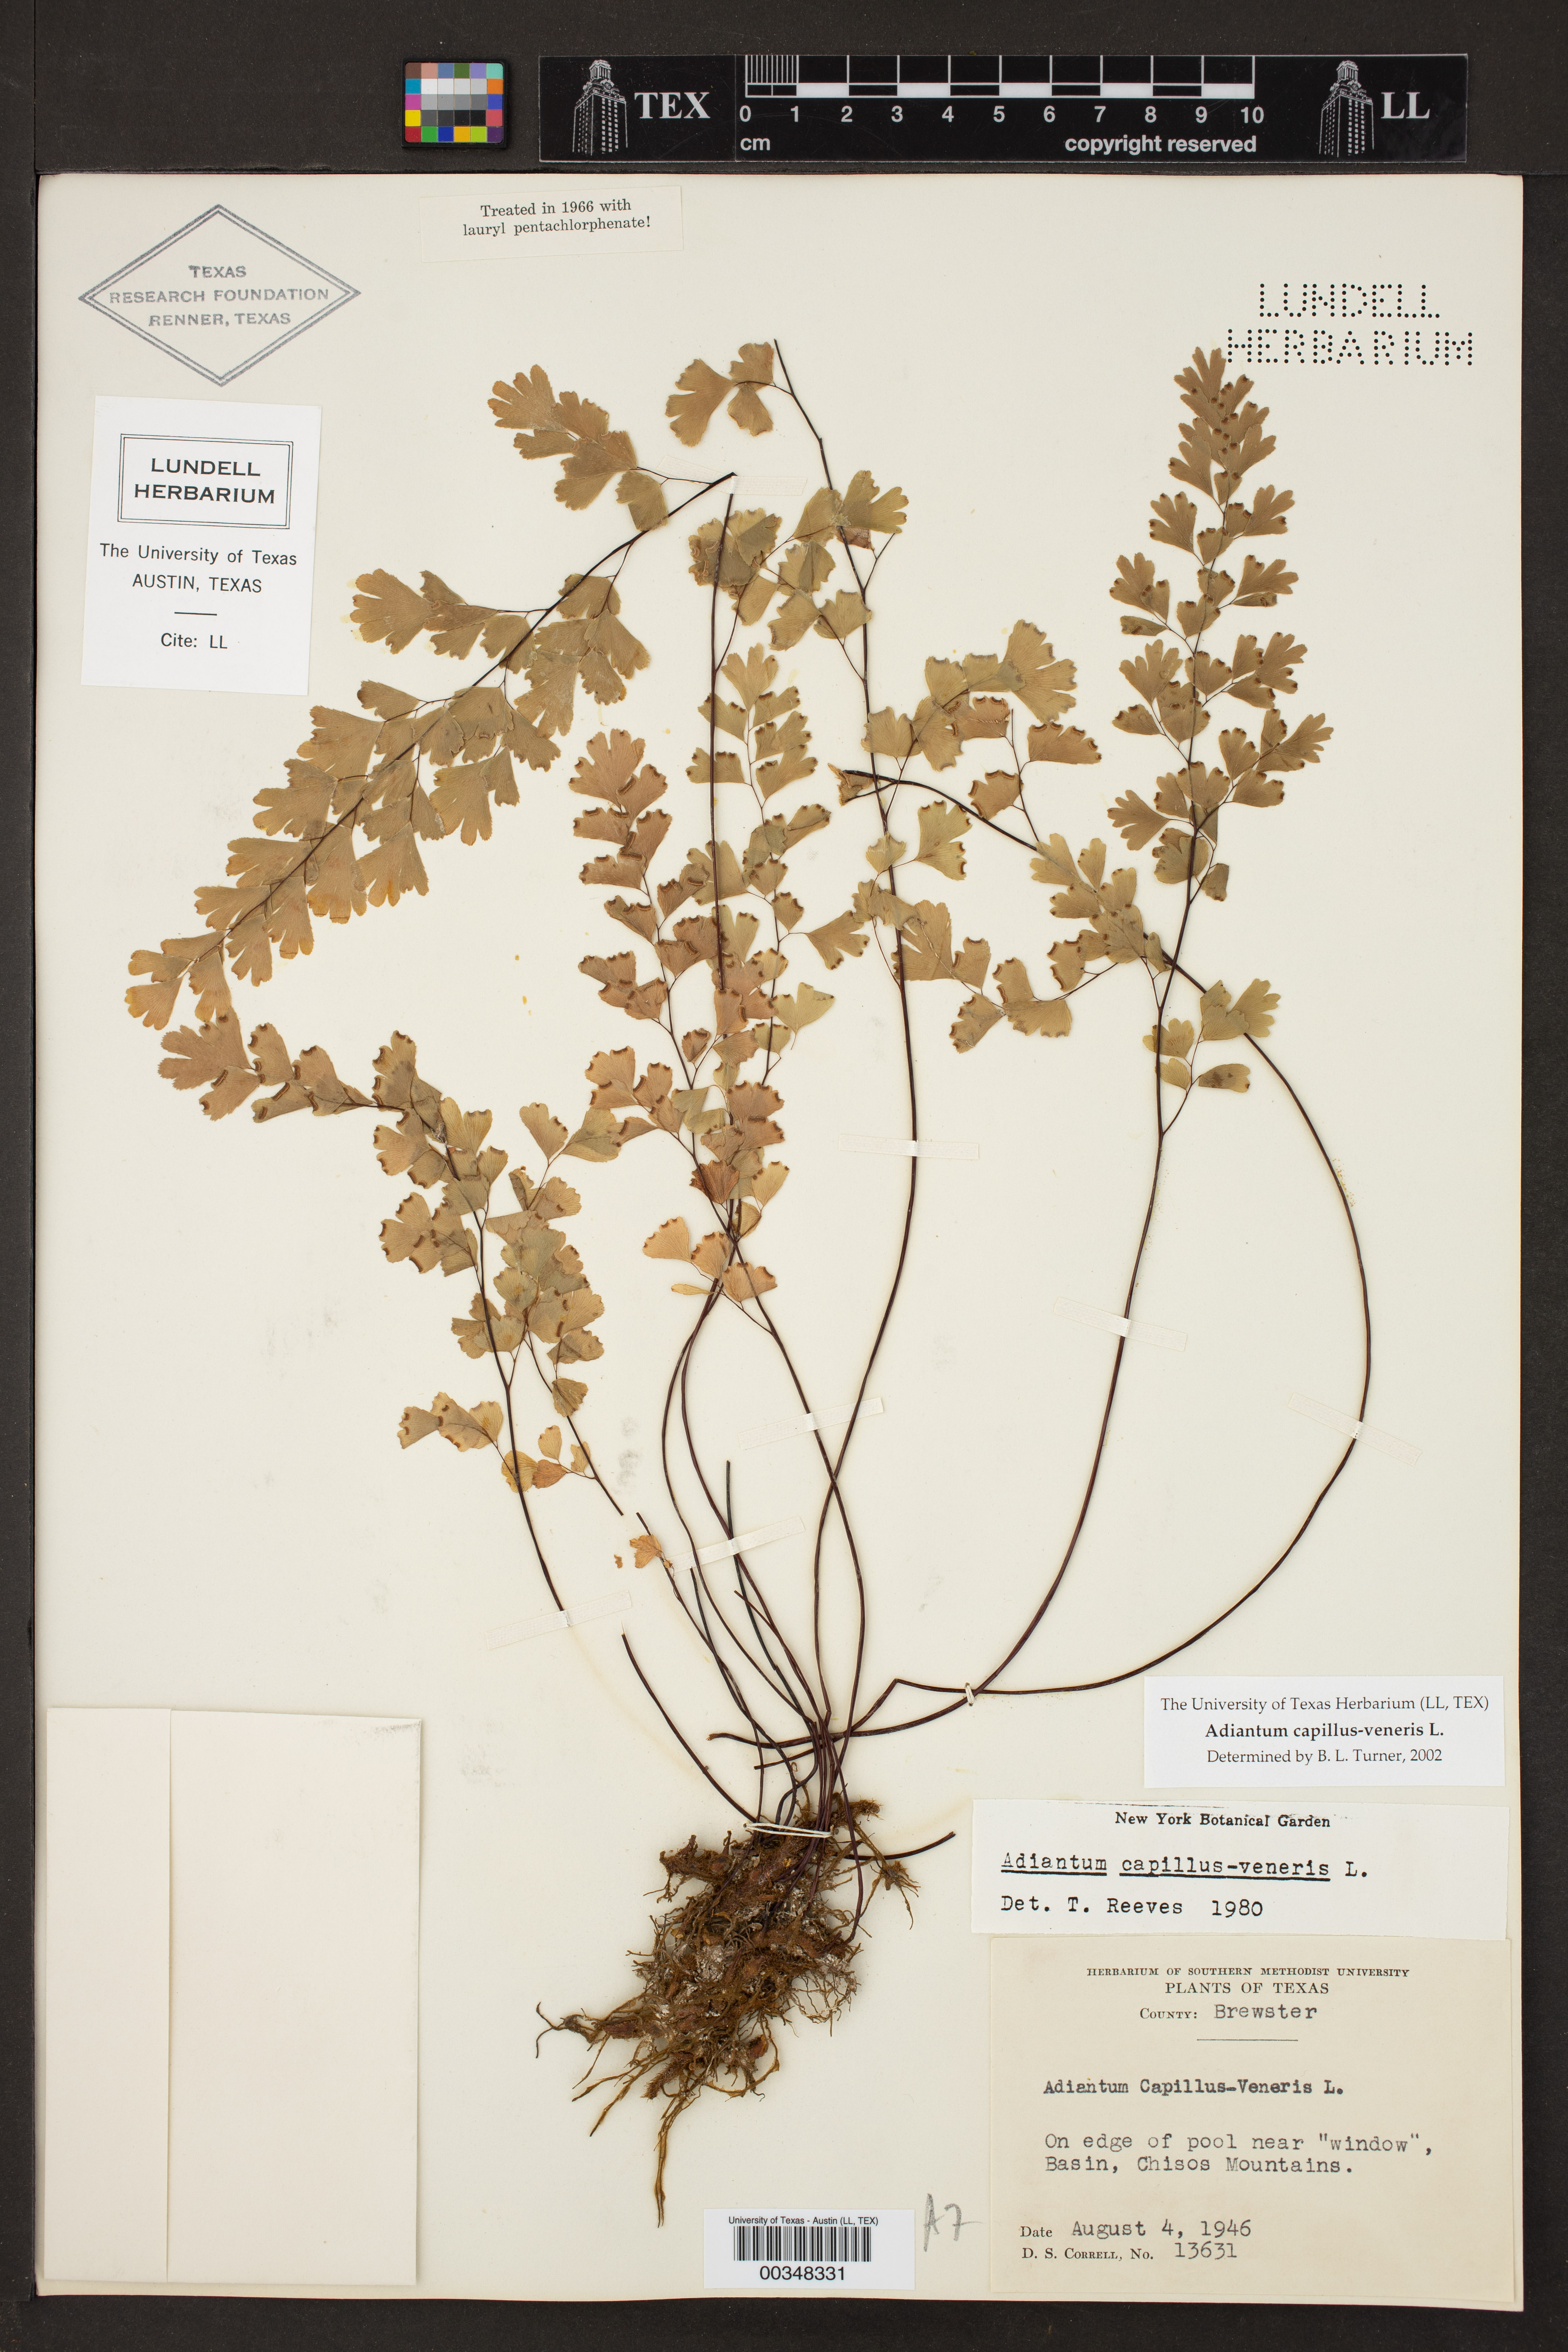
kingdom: Plantae
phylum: Tracheophyta
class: Polypodiopsida
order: Polypodiales
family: Pteridaceae
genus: Adiantum
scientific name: Adiantum capillus-veneris
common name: Maidenhair fern
